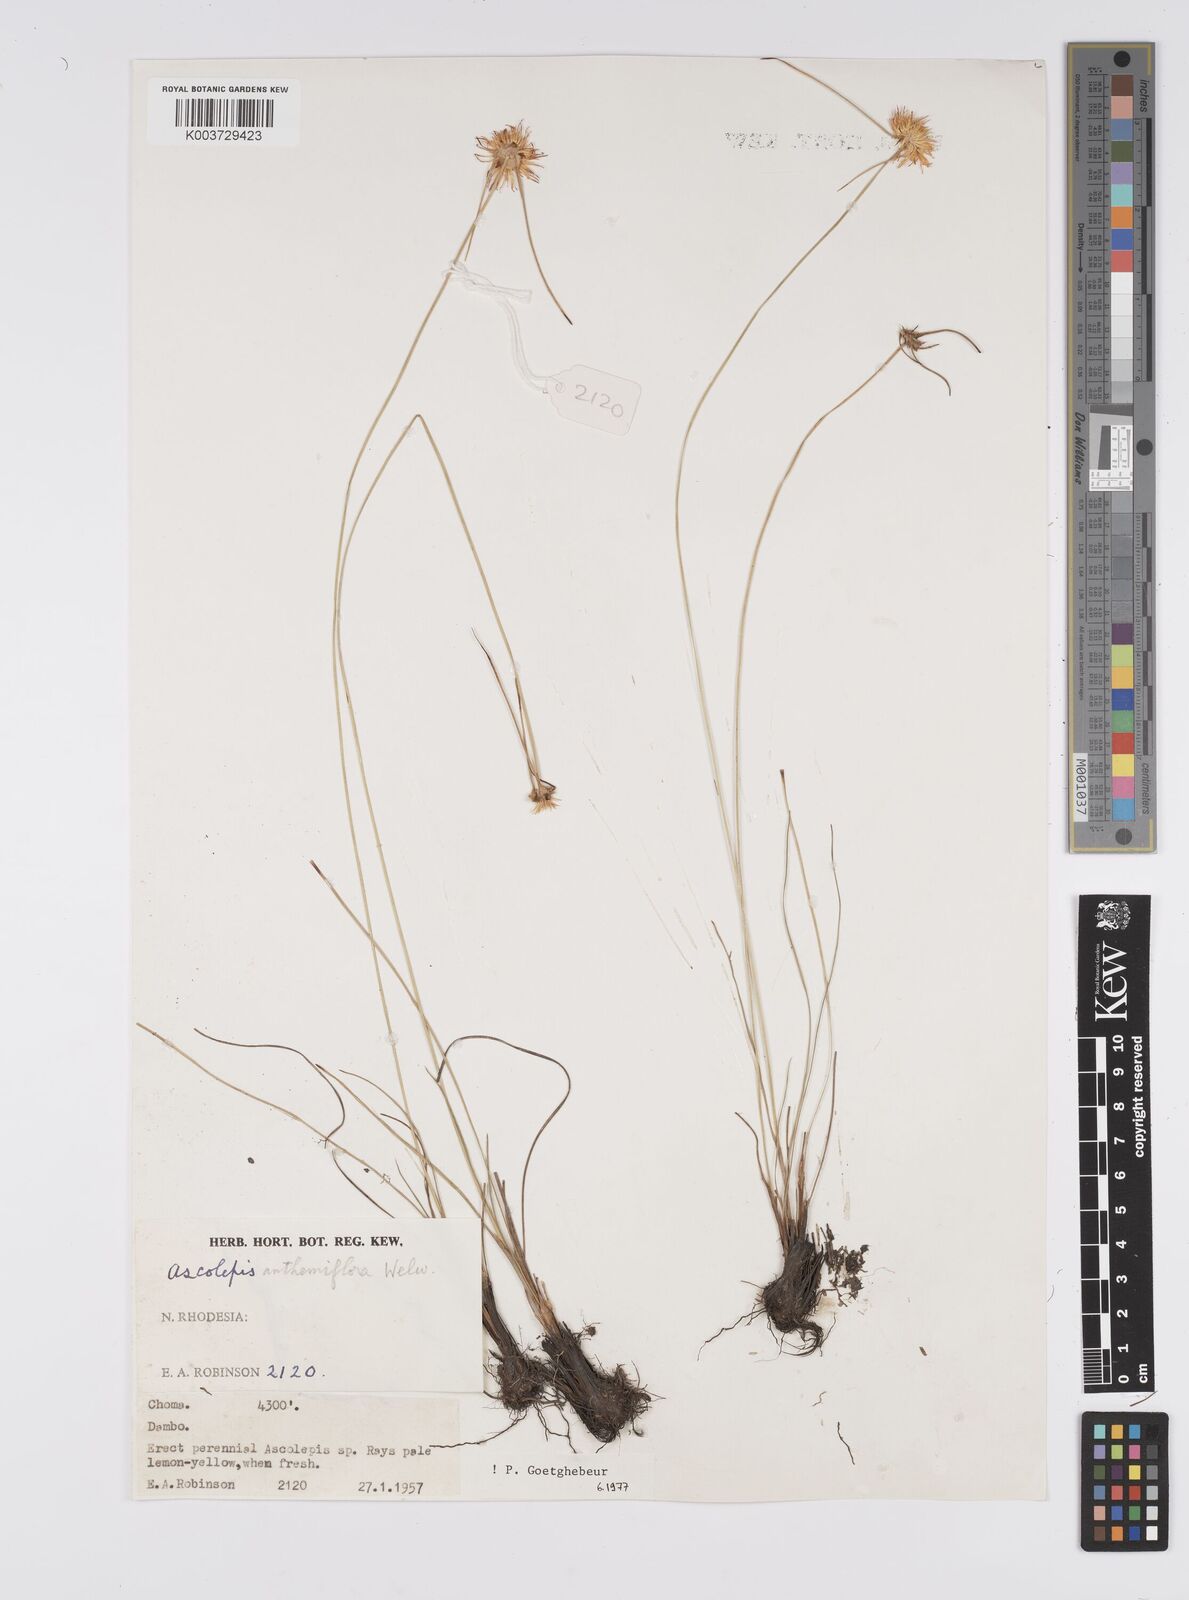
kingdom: Plantae
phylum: Tracheophyta
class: Liliopsida
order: Poales
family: Cyperaceae
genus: Cyperus
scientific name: Cyperus
